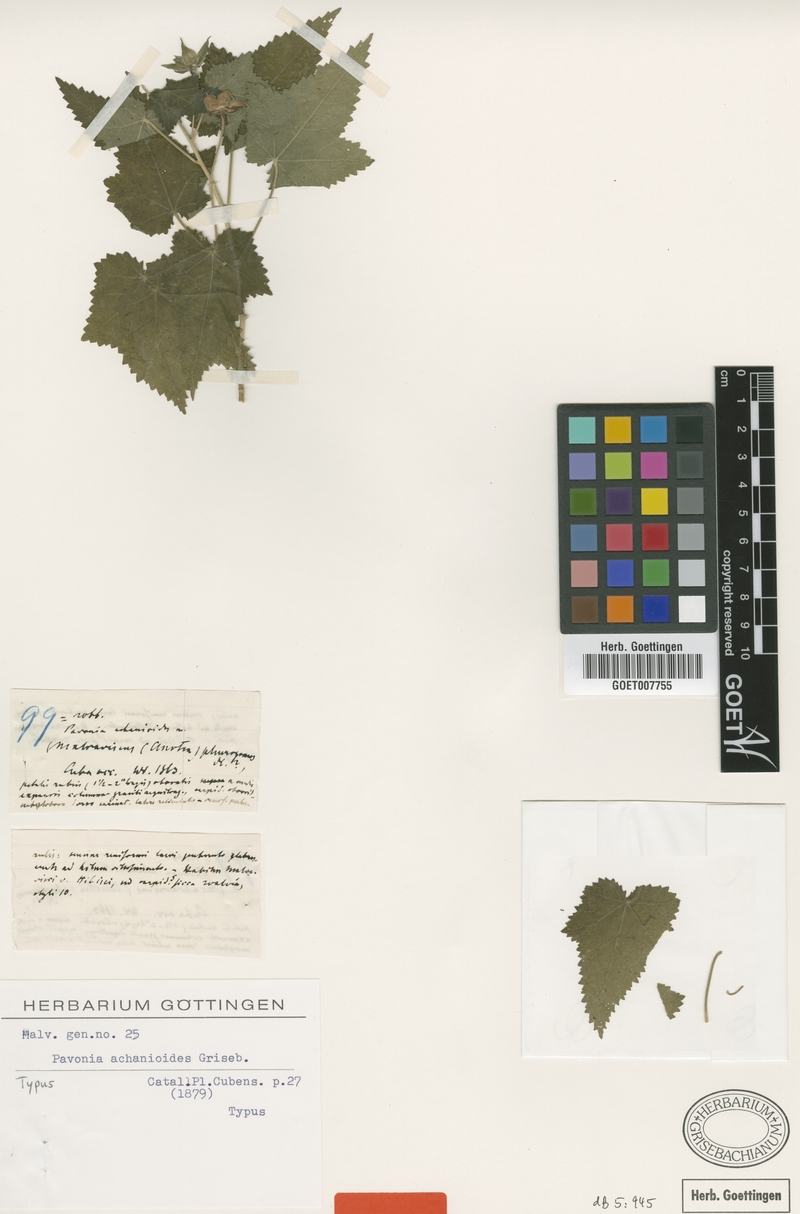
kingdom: Plantae
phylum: Tracheophyta
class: Magnoliopsida
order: Malvales
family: Malvaceae
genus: Pavonia
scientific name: Pavonia achanioides
